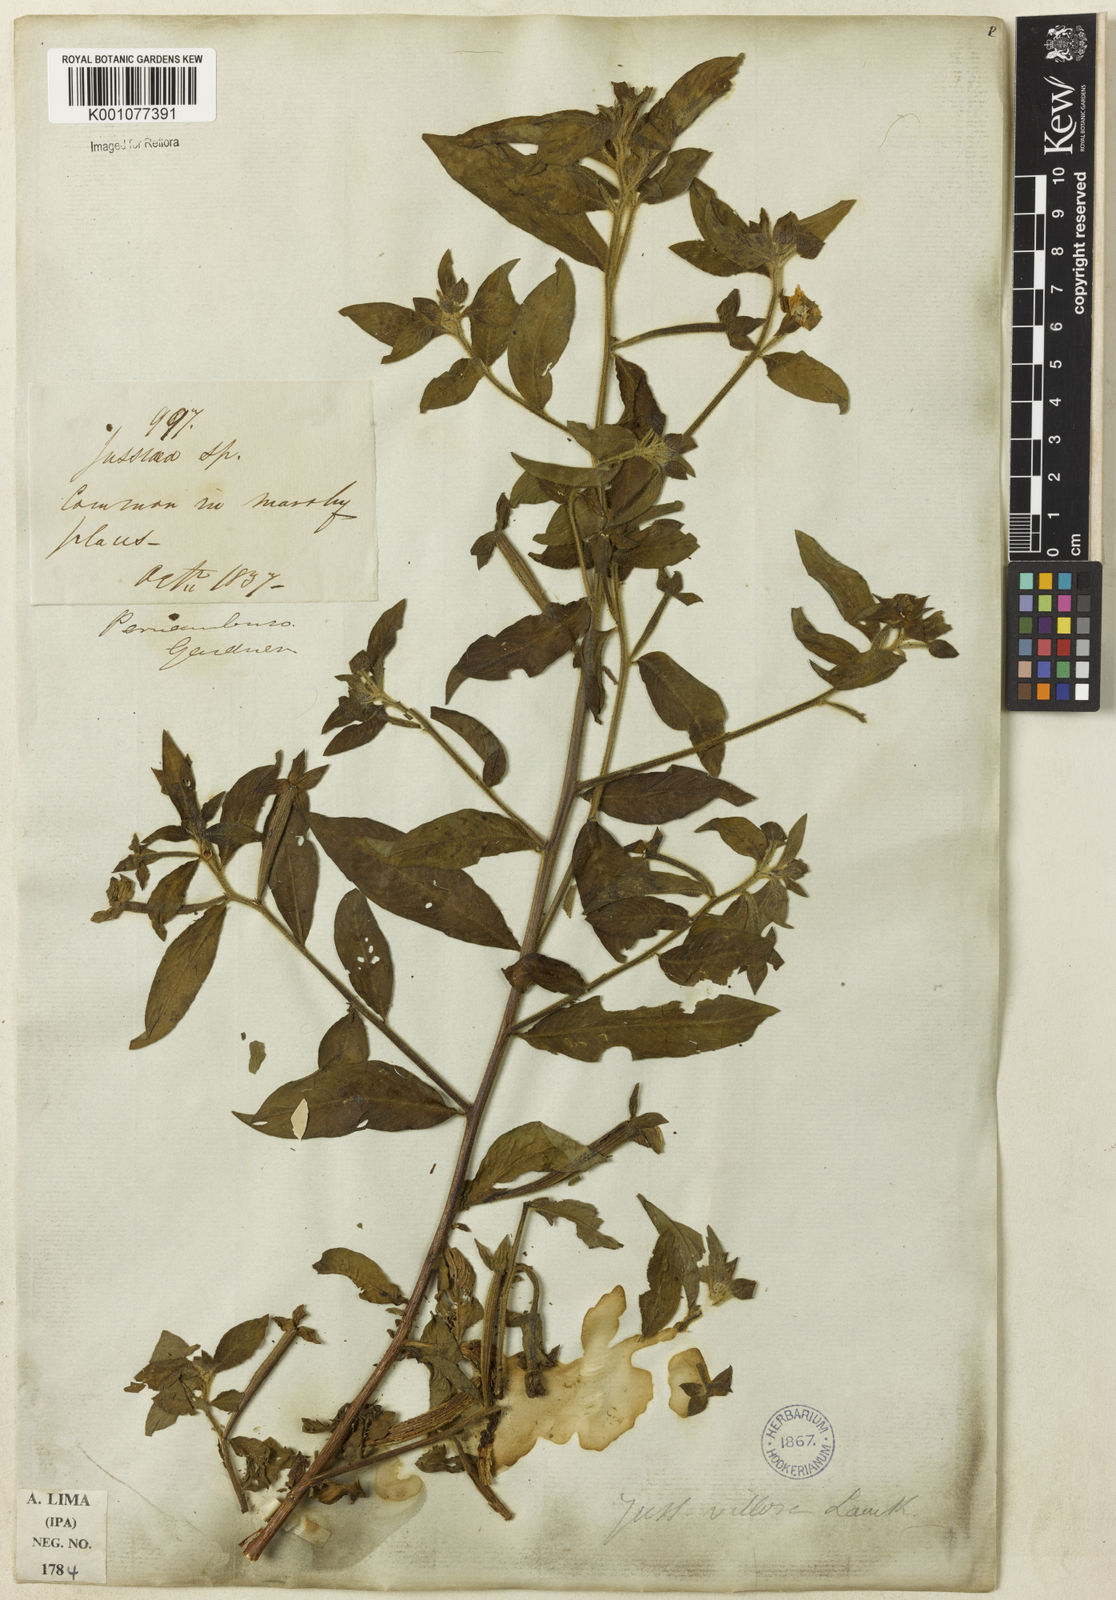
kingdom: Plantae
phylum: Tracheophyta
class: Magnoliopsida
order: Myrtales
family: Onagraceae
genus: Ludwigia
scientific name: Ludwigia octovalvis
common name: Water-primrose
